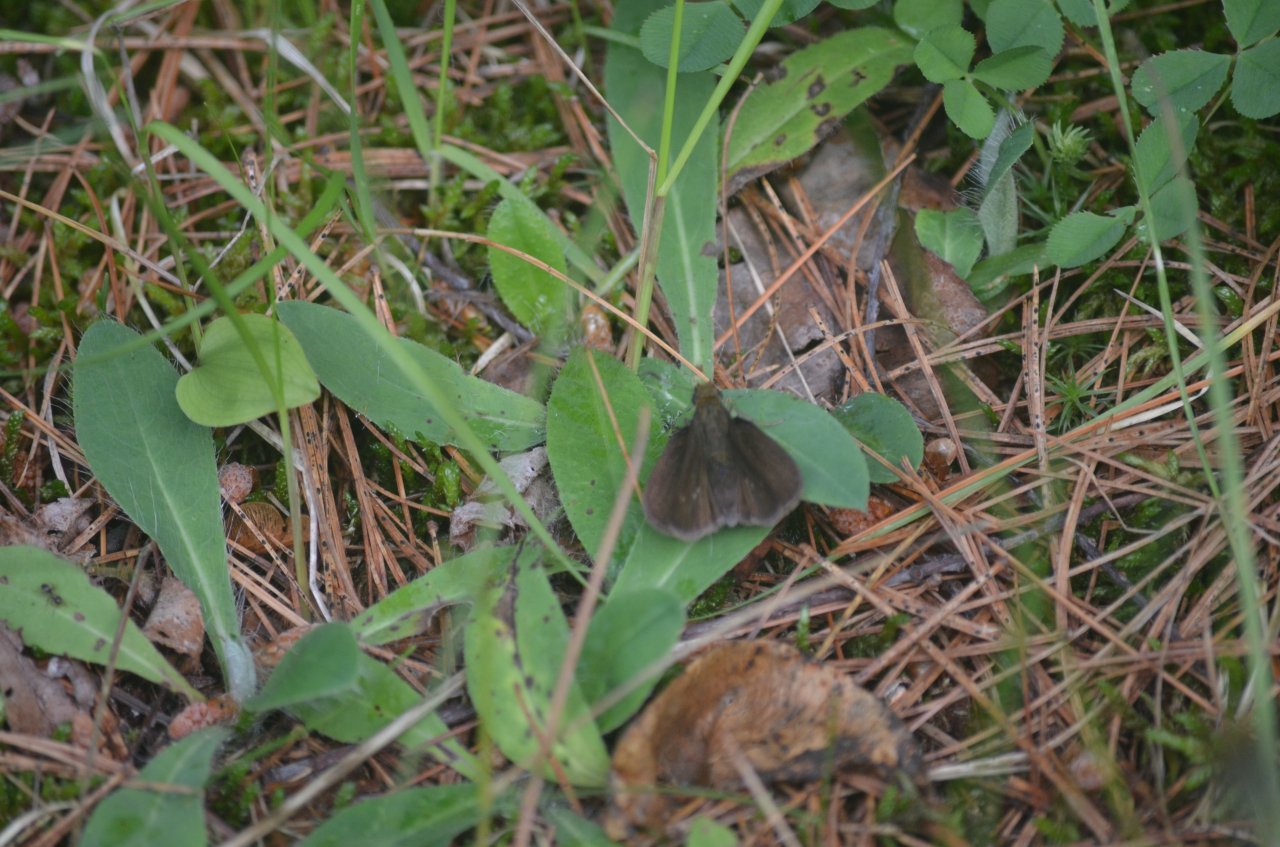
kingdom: Animalia
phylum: Arthropoda
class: Insecta
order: Lepidoptera
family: Hesperiidae
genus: Euphyes
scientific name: Euphyes vestris
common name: Dun Skipper
